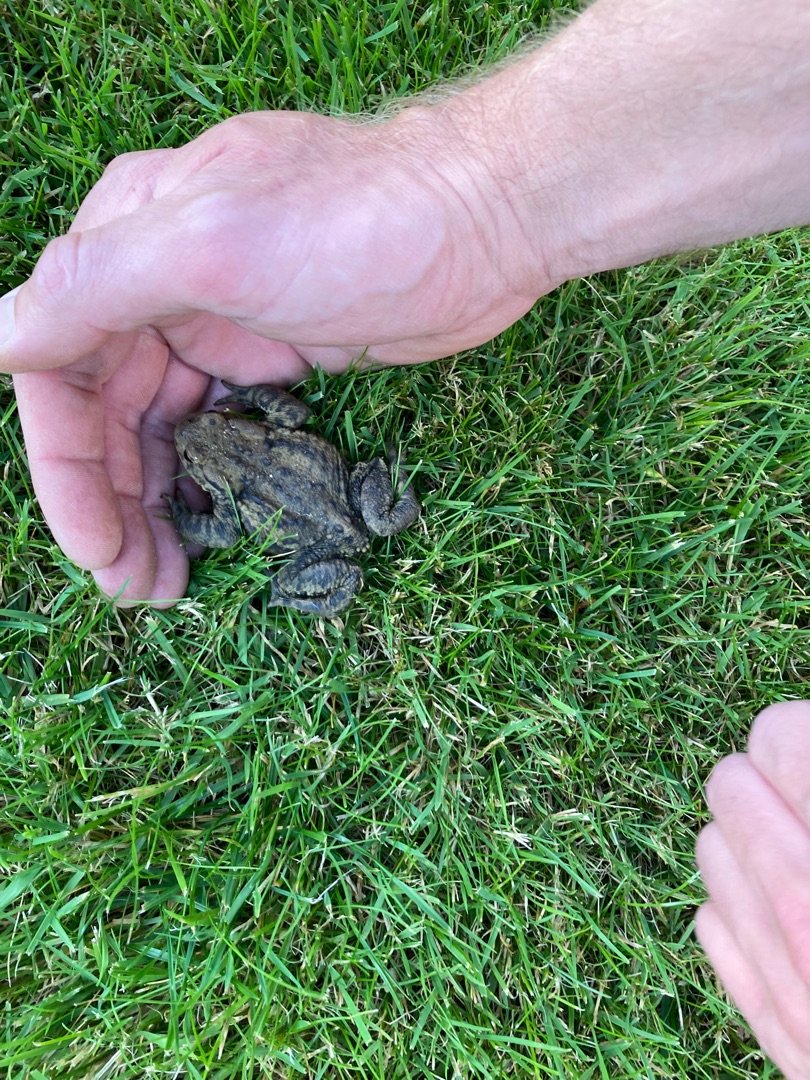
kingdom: Animalia
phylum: Chordata
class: Amphibia
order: Anura
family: Bufonidae
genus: Bufo
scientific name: Bufo bufo
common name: Skrubtudse
